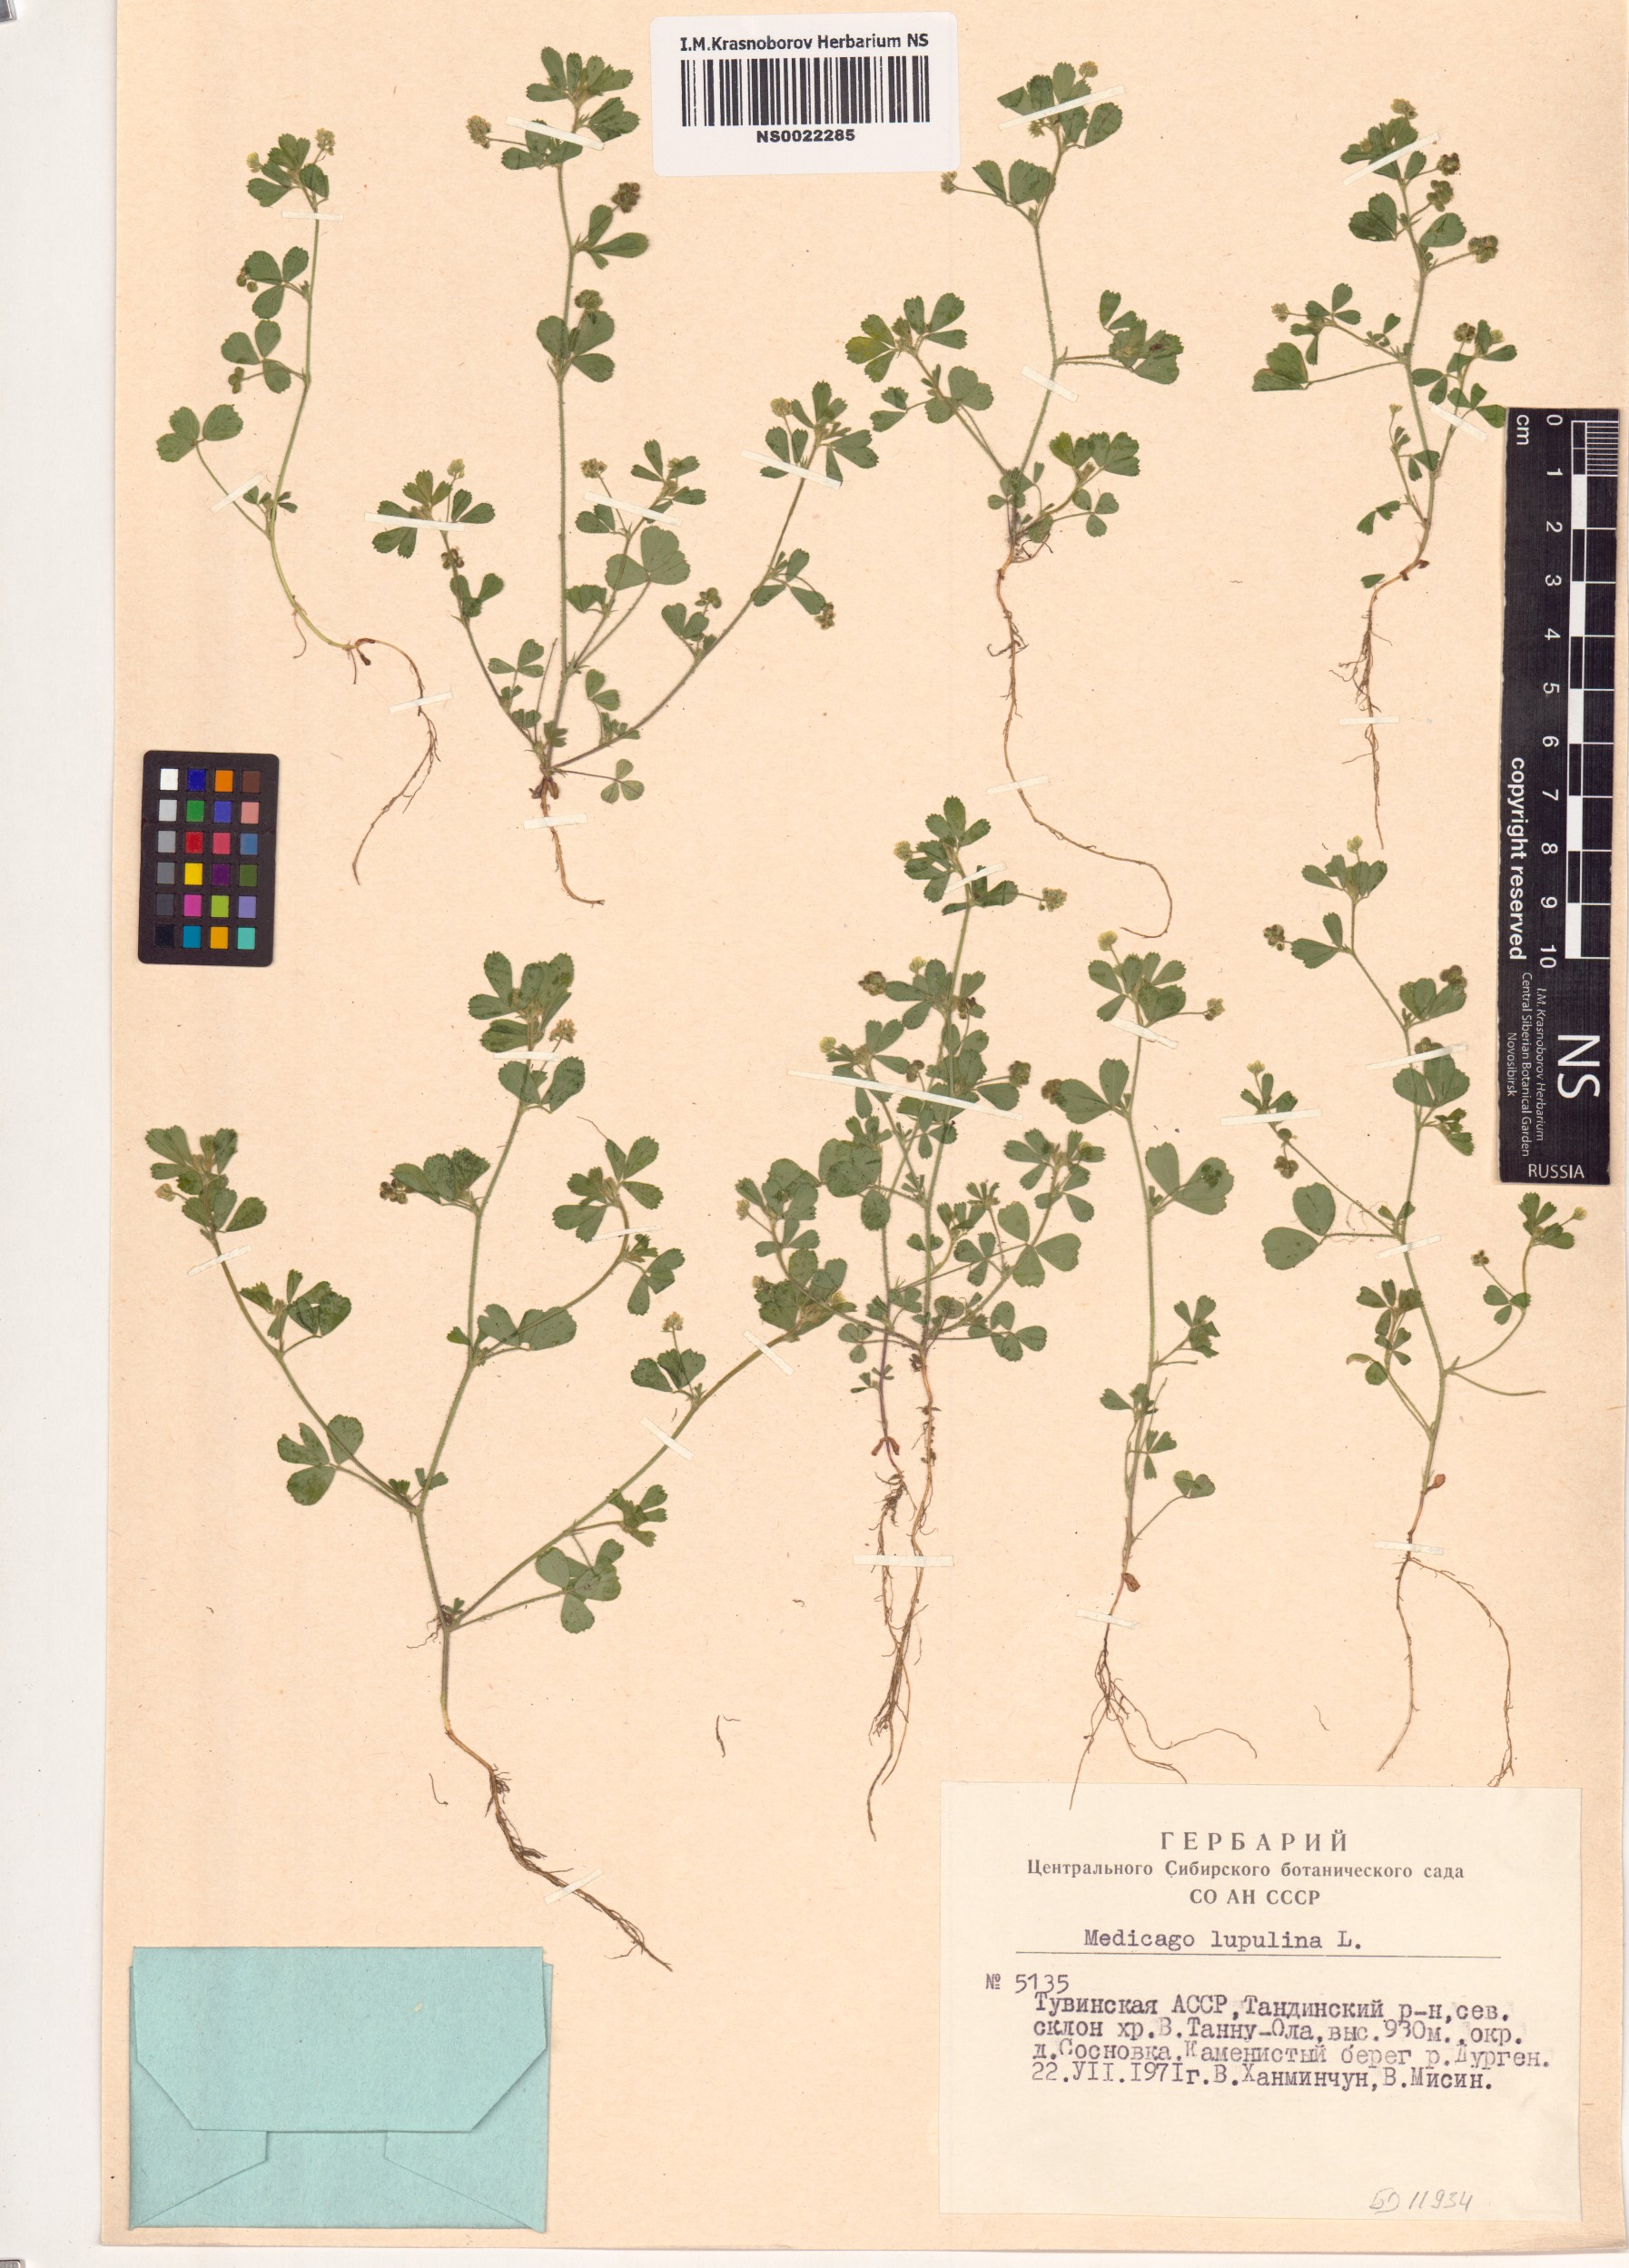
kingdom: Plantae
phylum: Tracheophyta
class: Magnoliopsida
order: Fabales
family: Fabaceae
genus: Medicago
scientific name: Medicago lupulina
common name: Black medick
